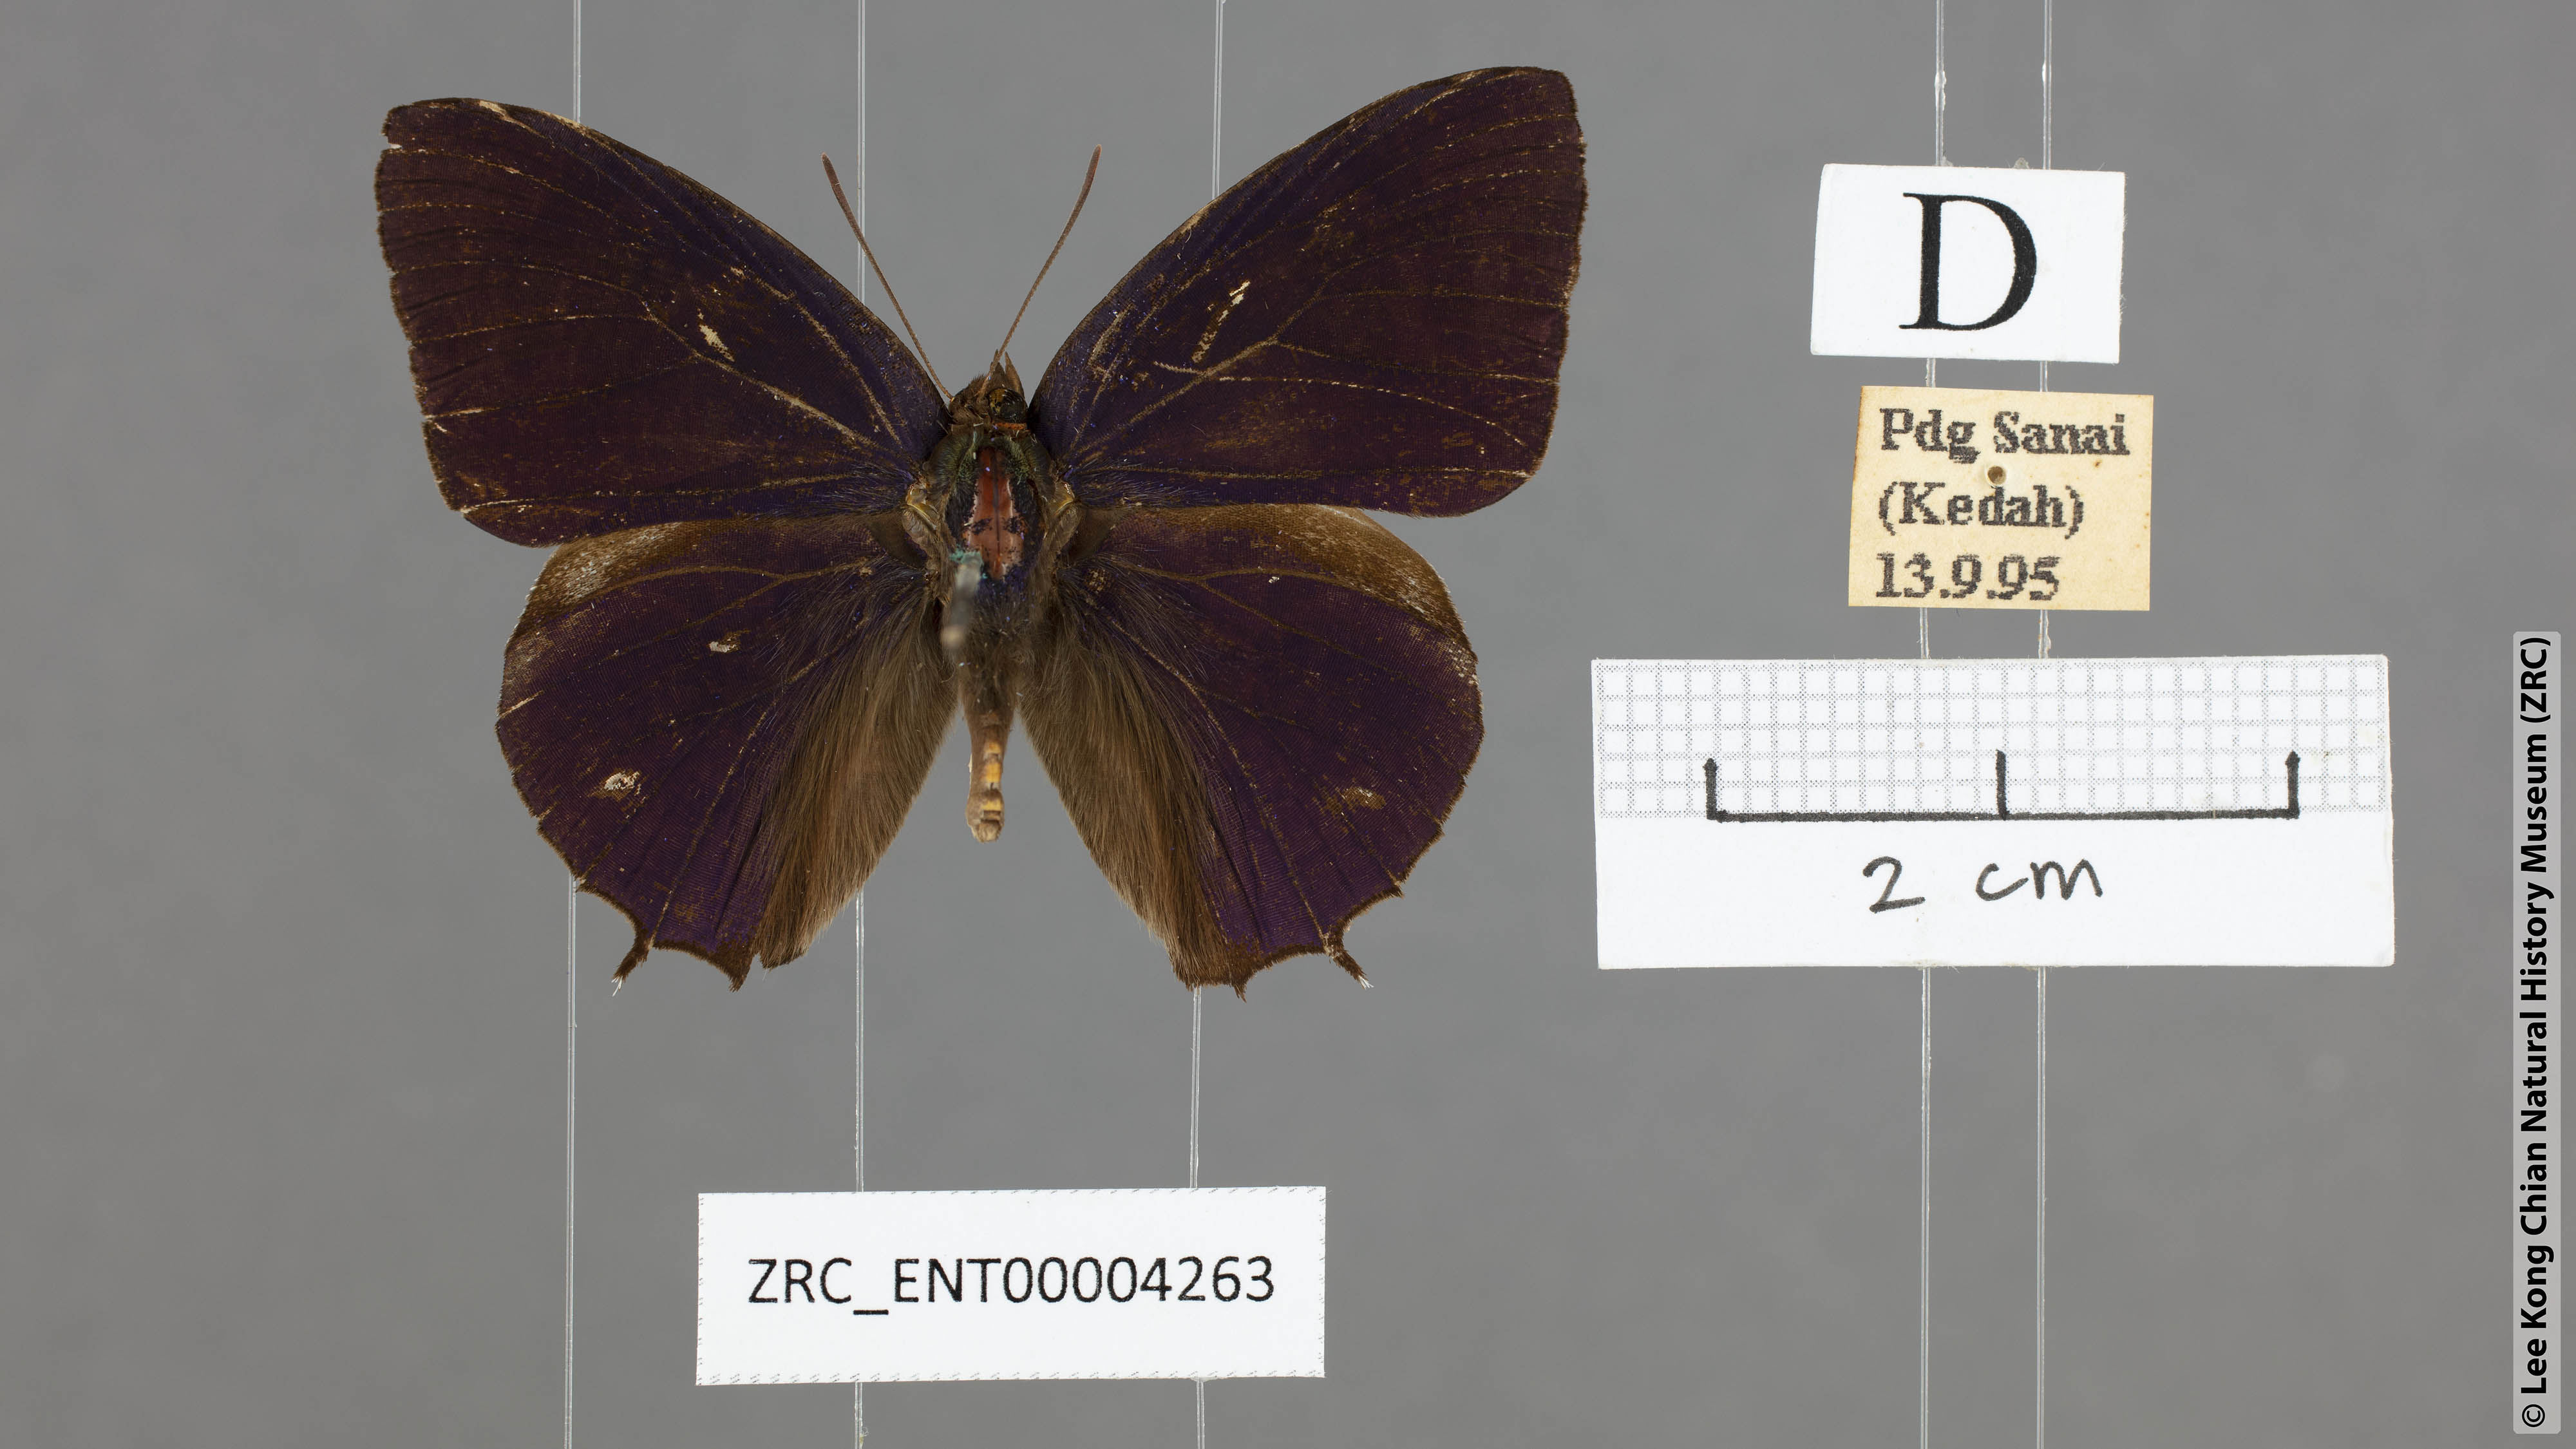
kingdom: Animalia
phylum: Arthropoda
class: Insecta
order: Lepidoptera
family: Lycaenidae
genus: Flos
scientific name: Flos
